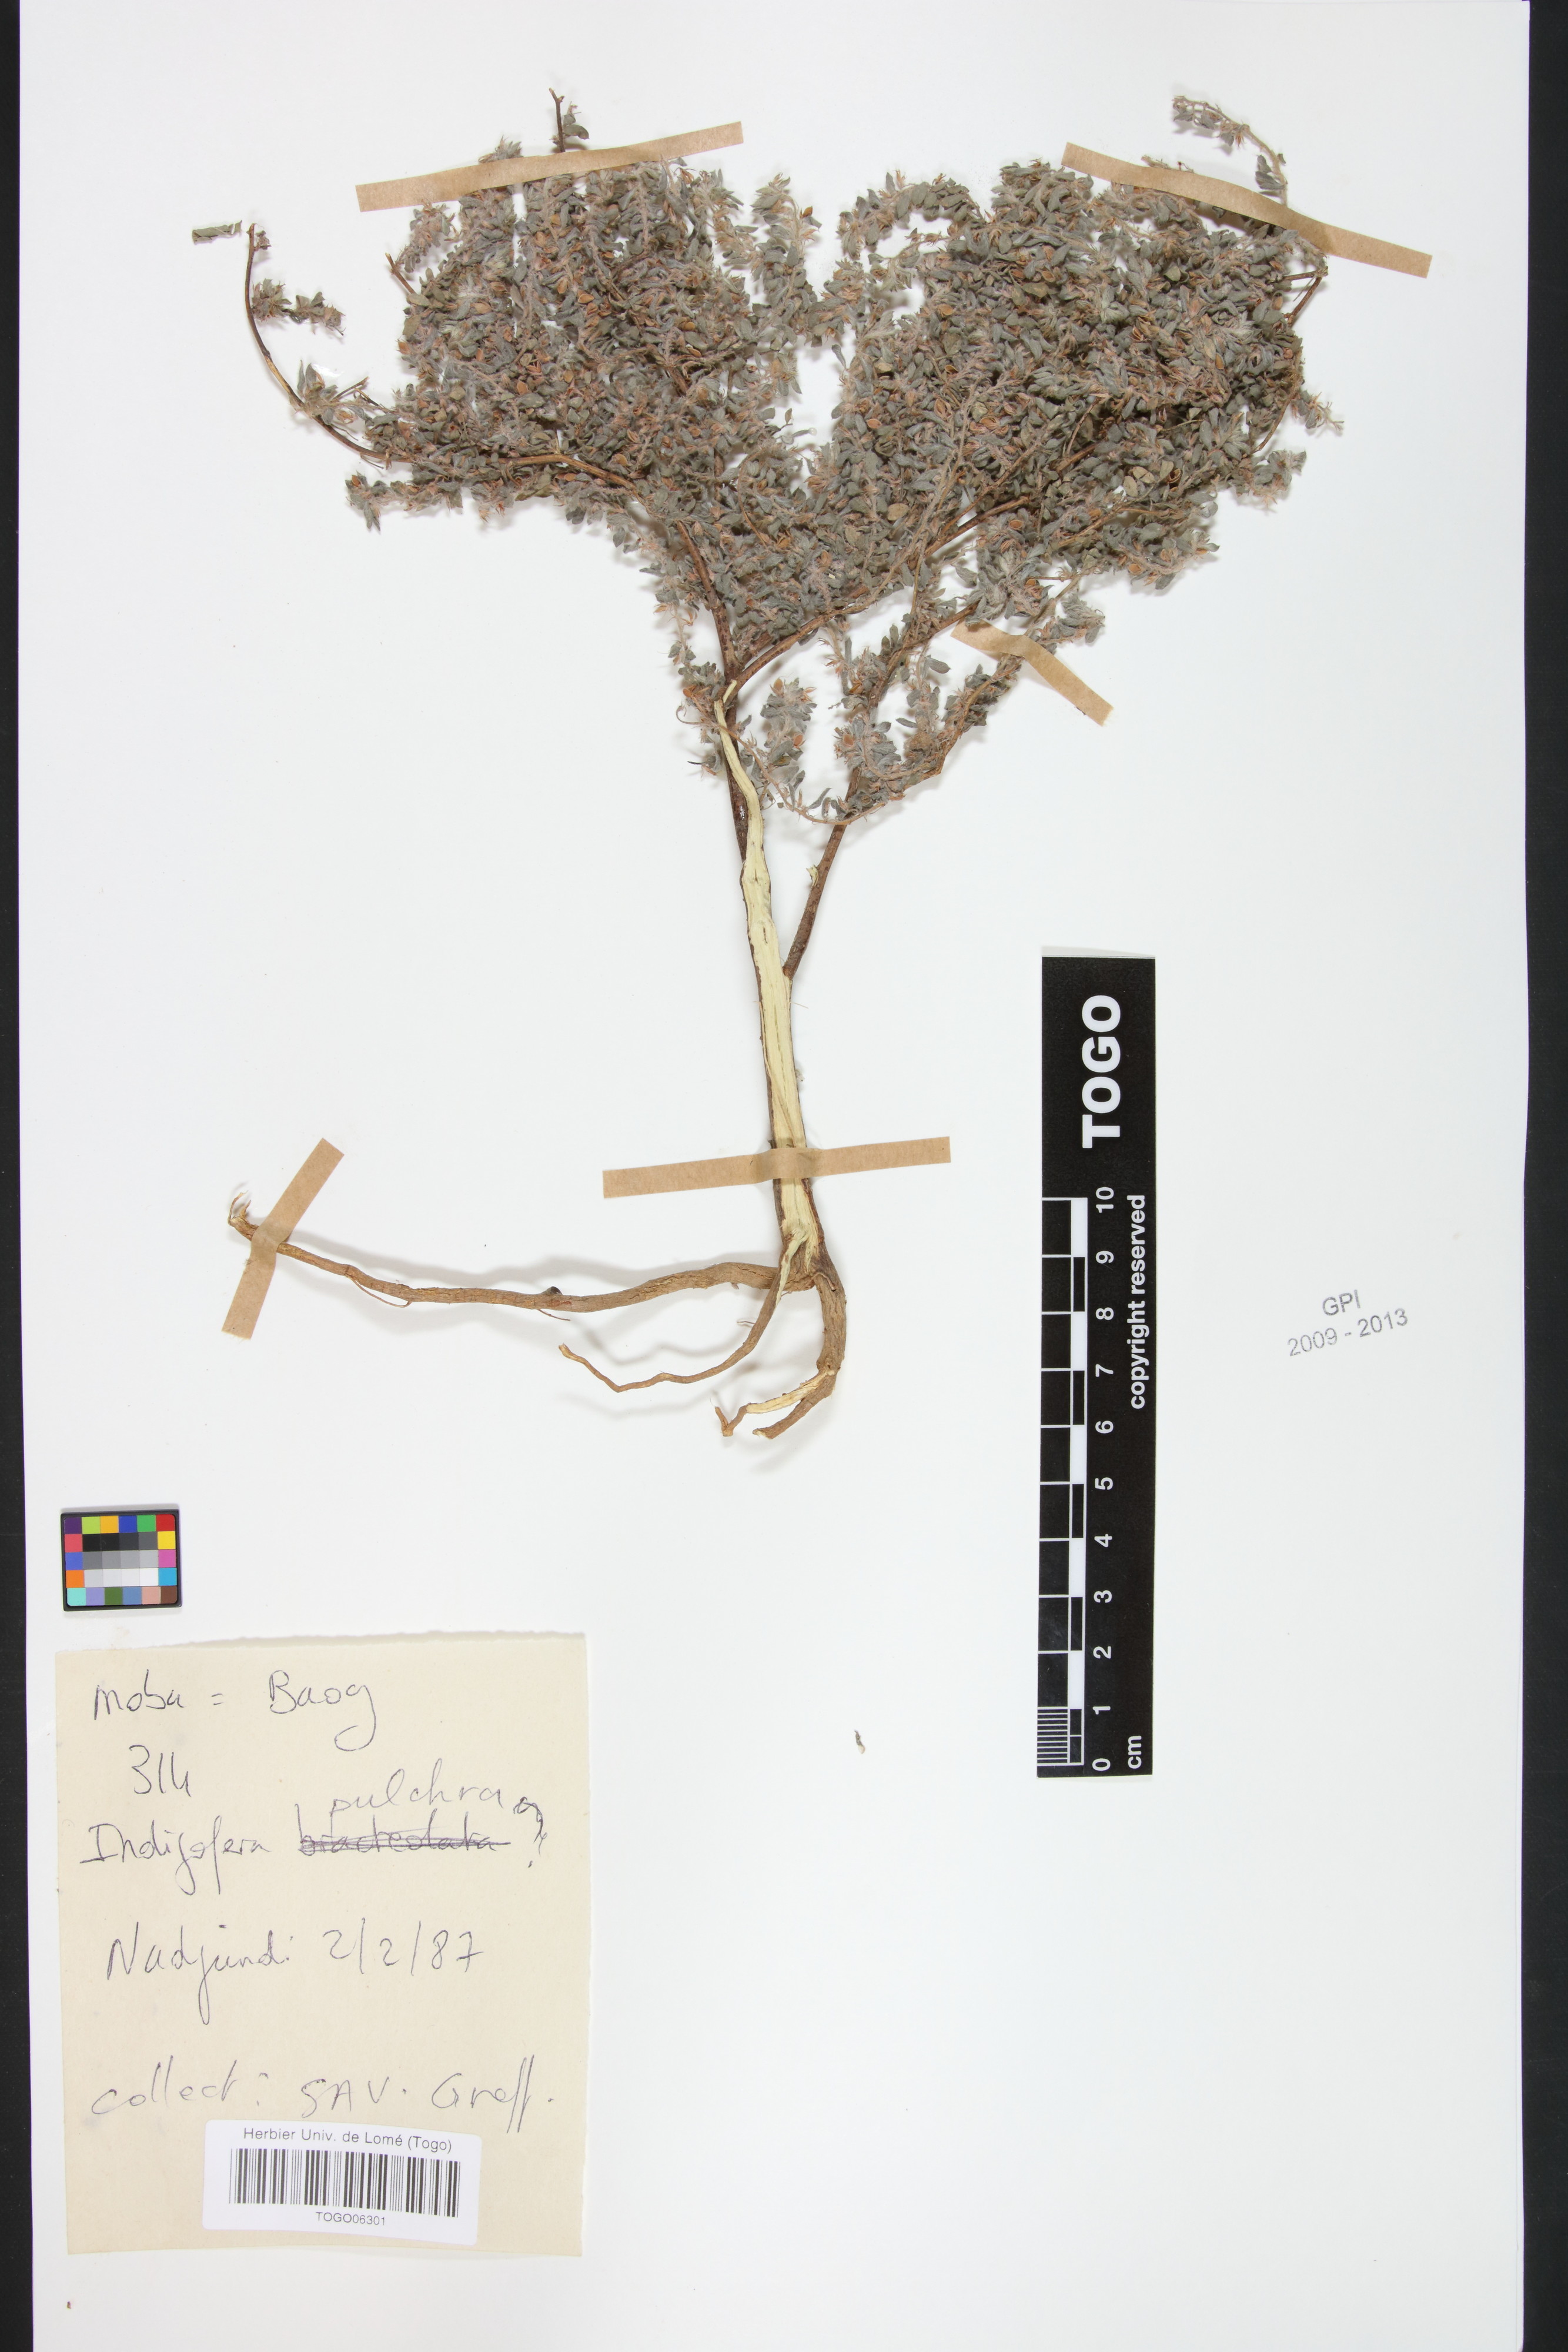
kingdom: Plantae
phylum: Tracheophyta
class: Magnoliopsida
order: Fabales
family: Fabaceae
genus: Indigofera
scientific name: Indigofera pulchra
